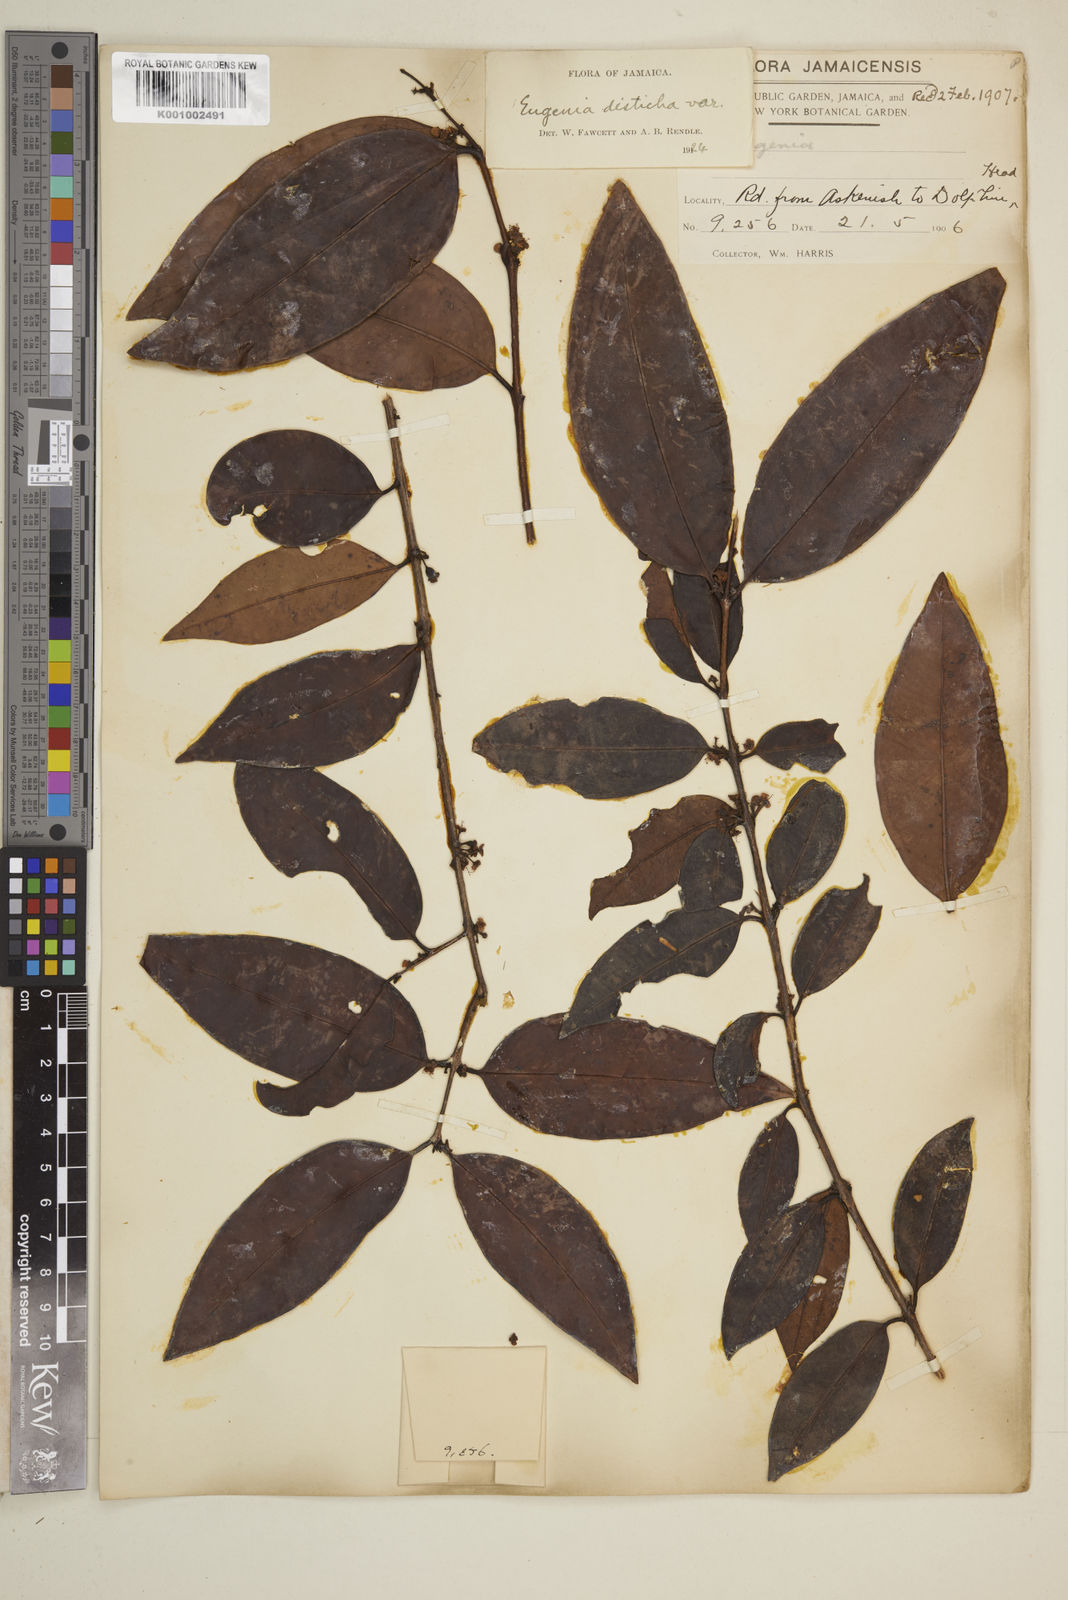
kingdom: Plantae
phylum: Tracheophyta
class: Magnoliopsida
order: Myrtales
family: Myrtaceae
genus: Eugenia
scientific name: Eugenia disticha
